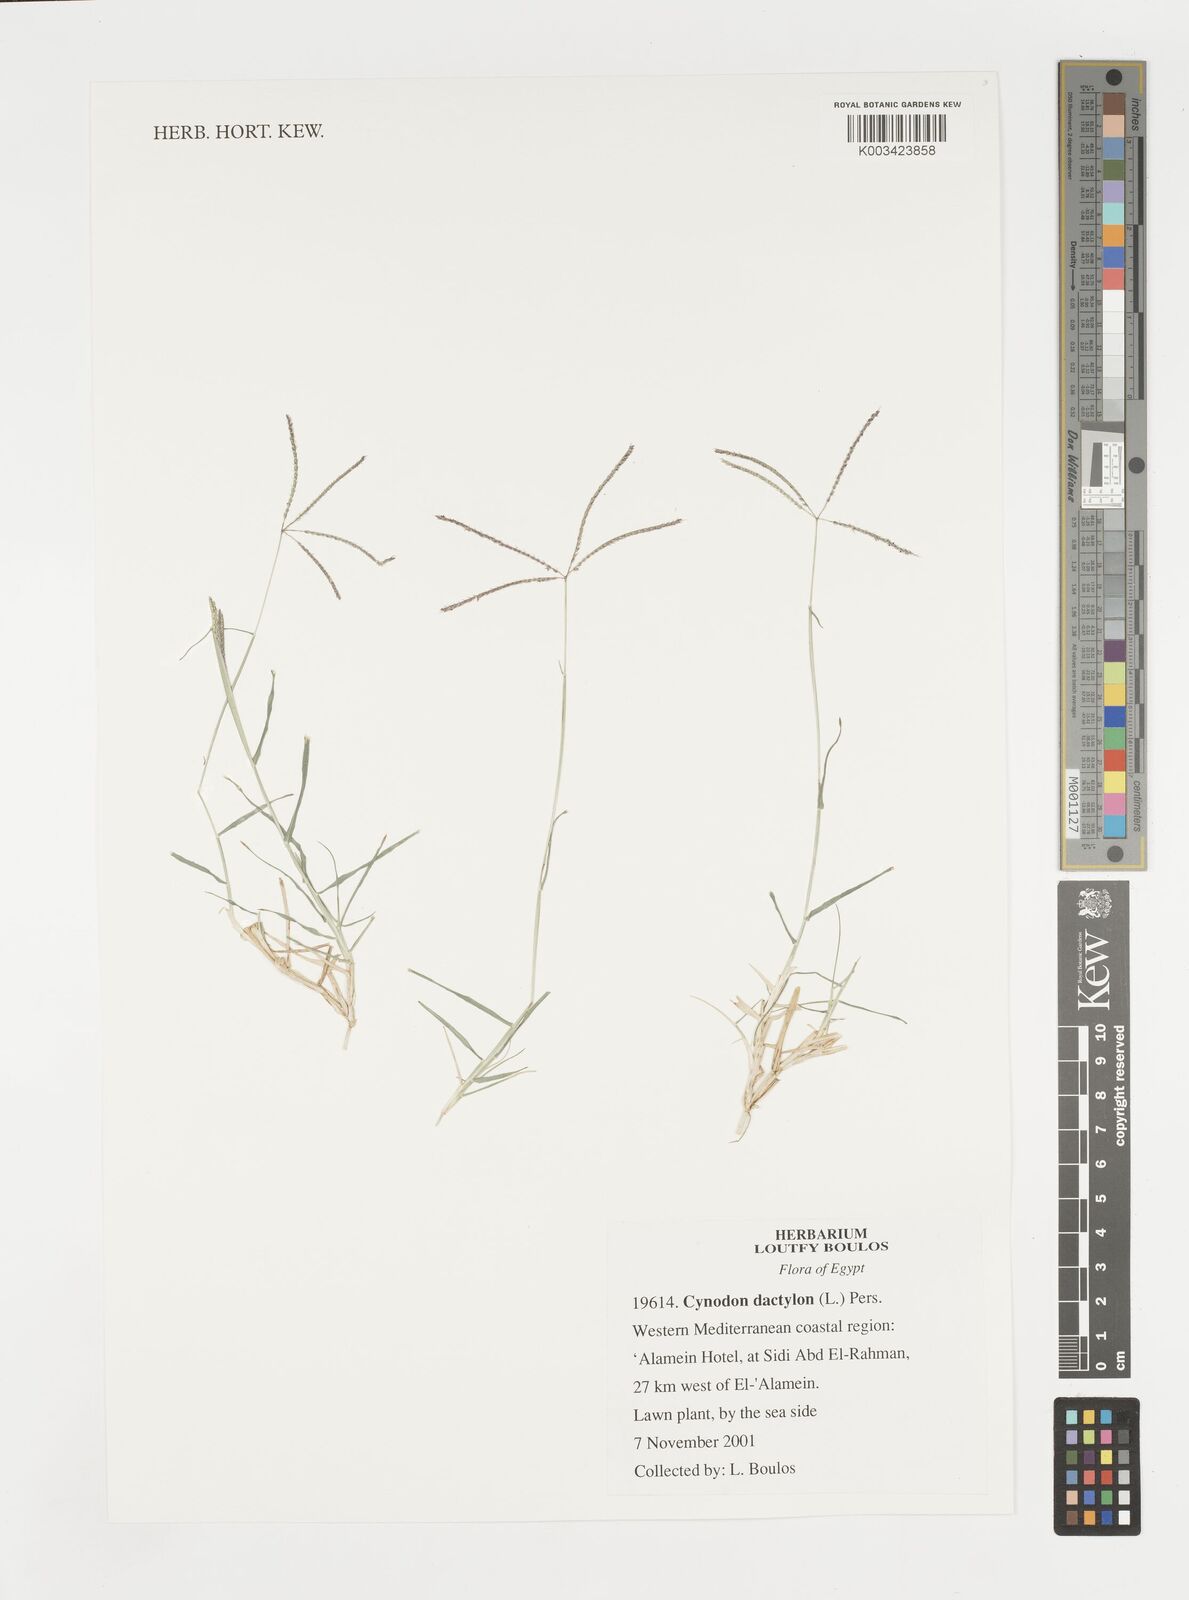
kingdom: Plantae
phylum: Tracheophyta
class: Liliopsida
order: Poales
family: Poaceae
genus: Cynodon
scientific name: Cynodon dactylon
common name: Bermuda grass
